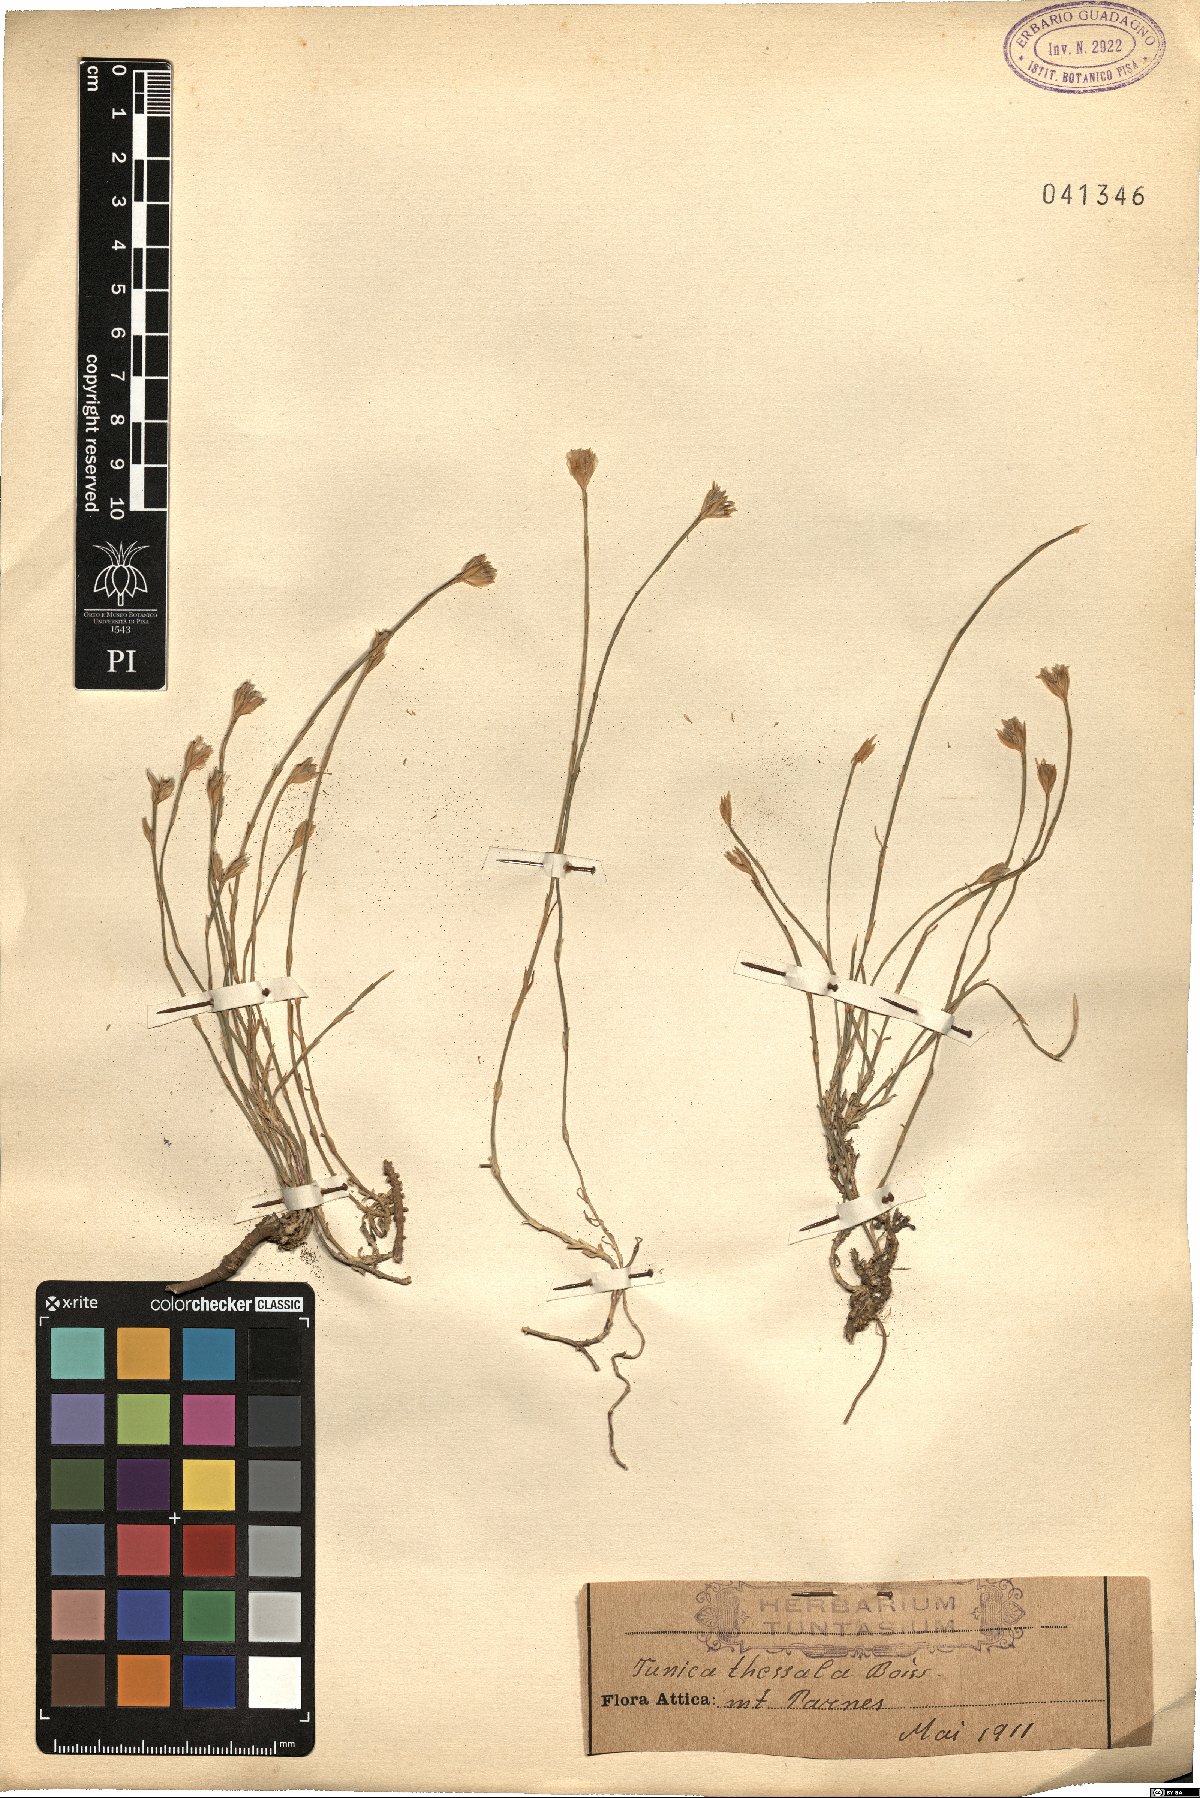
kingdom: Plantae
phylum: Tracheophyta
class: Magnoliopsida
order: Caryophyllales
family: Caryophyllaceae
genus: Petrorhagia
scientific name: Petrorhagia thessala
